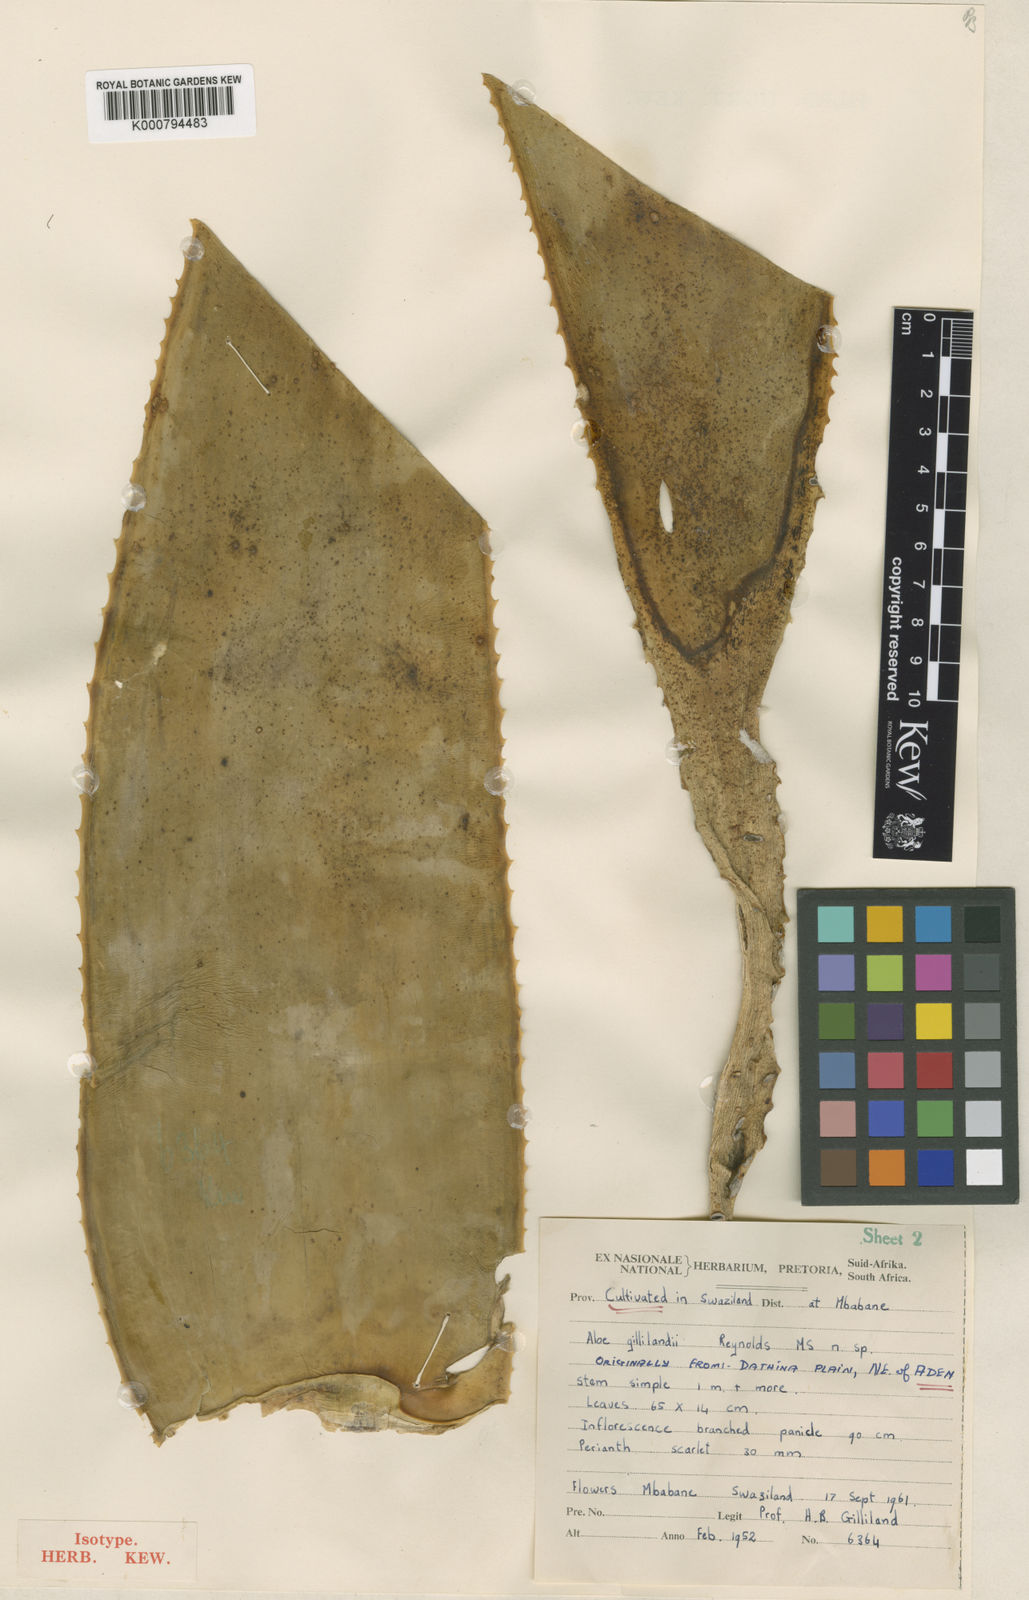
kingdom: Plantae
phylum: Tracheophyta
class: Liliopsida
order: Asparagales
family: Asphodelaceae
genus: Aloidendron
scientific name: Aloidendron sabaeum
